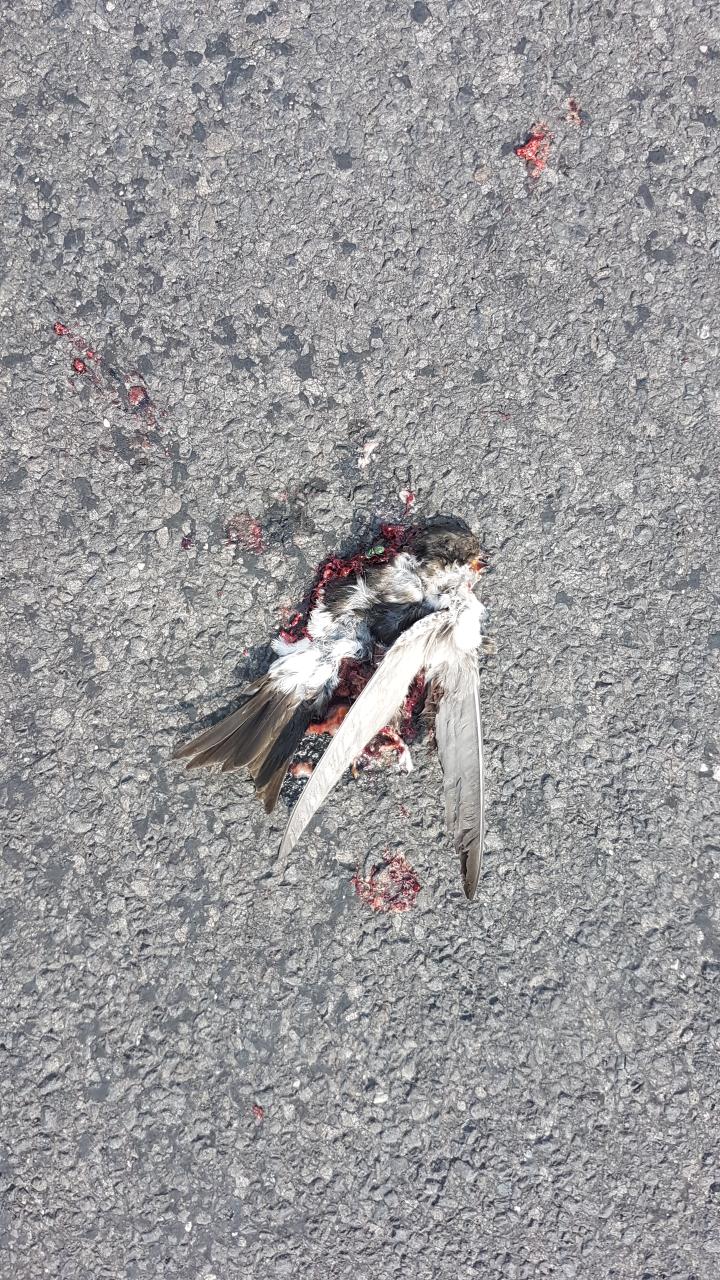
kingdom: Animalia
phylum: Chordata
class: Aves
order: Passeriformes
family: Hirundinidae
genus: Delichon
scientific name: Delichon urbicum
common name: Common house martin
